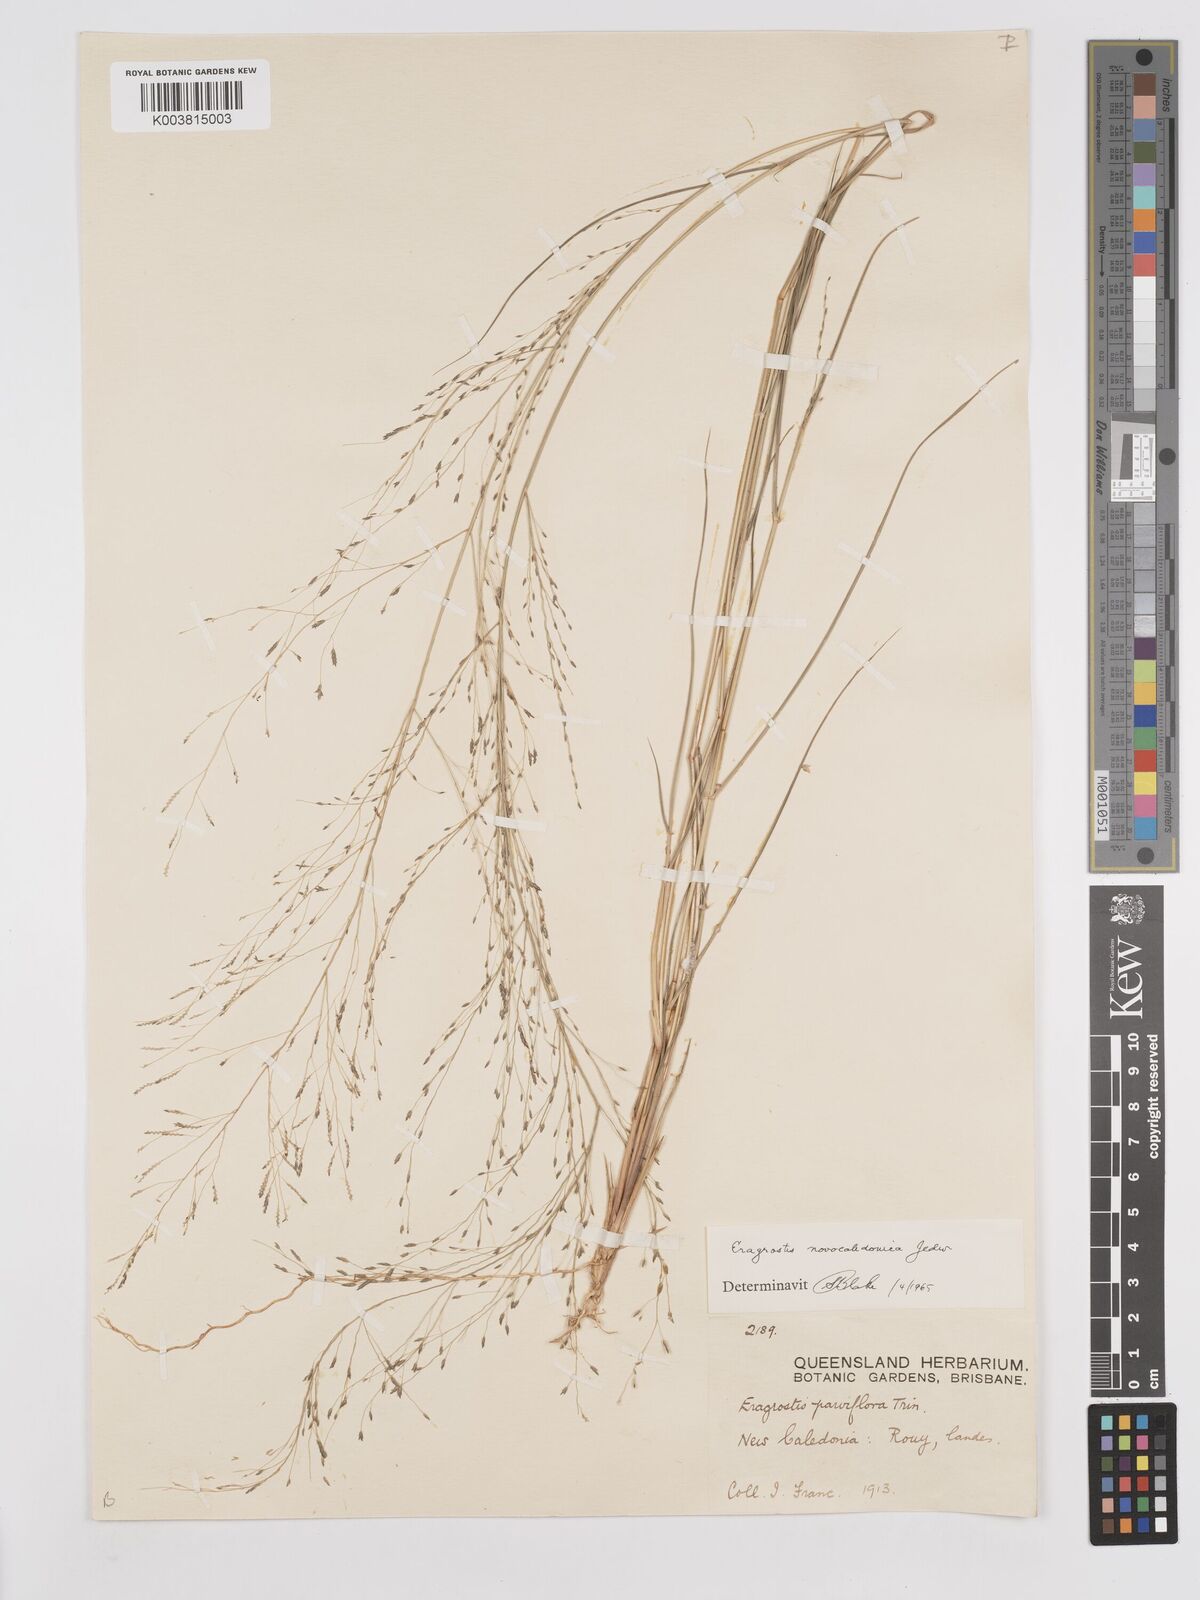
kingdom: Plantae
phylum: Tracheophyta
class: Liliopsida
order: Poales
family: Poaceae
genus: Eragrostis
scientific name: Eragrostis parviflora
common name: Weeping love-grass
